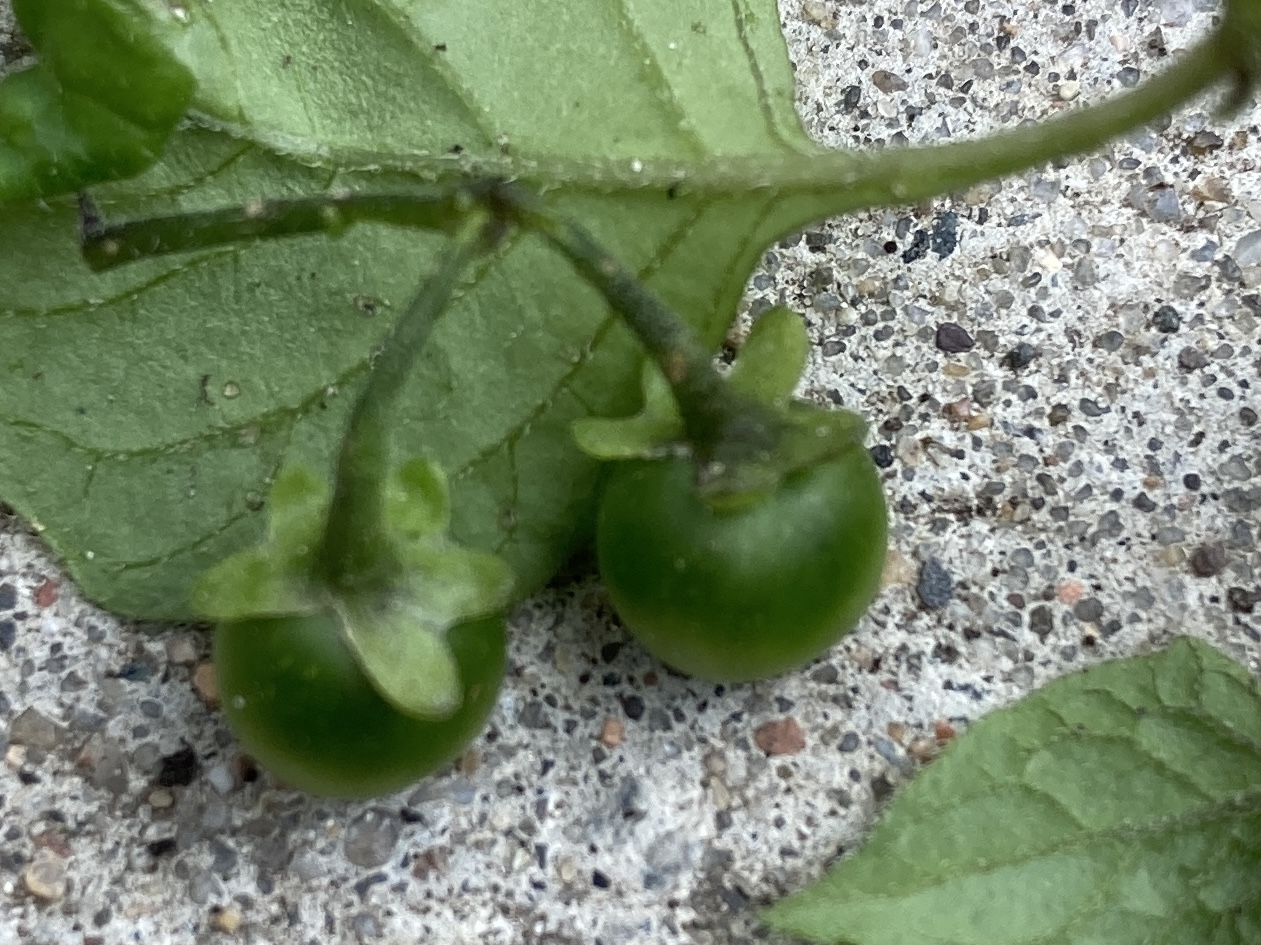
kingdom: Plantae
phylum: Tracheophyta
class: Magnoliopsida
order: Solanales
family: Solanaceae
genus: Solanum
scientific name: Solanum nigrum
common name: Sort natskygge (underart)
